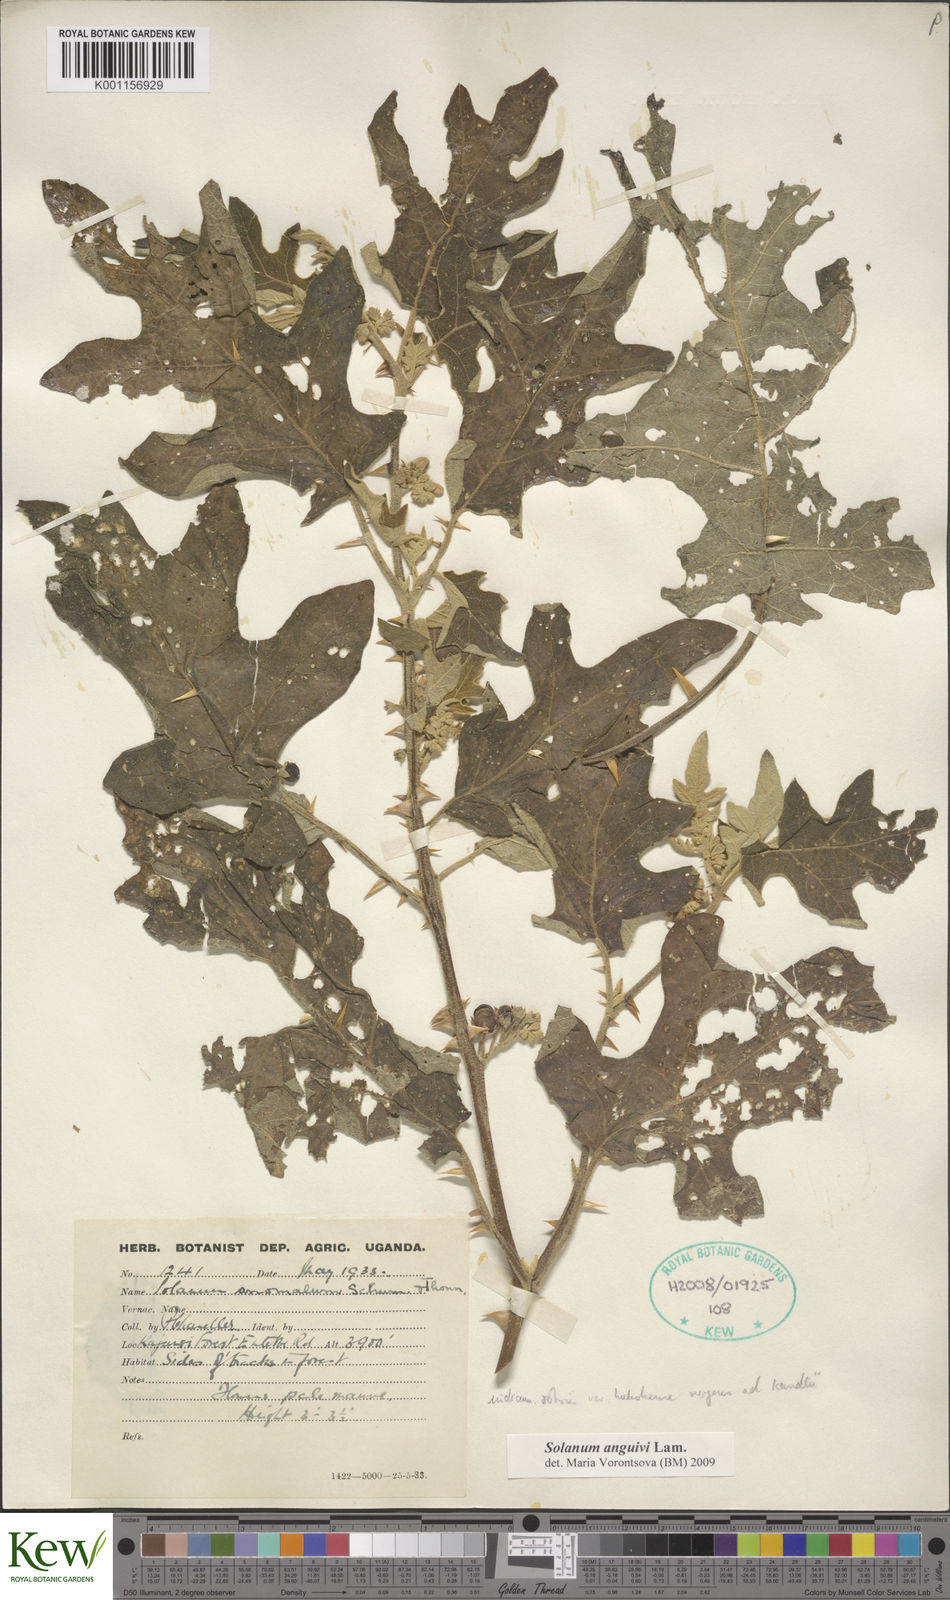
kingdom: Plantae
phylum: Tracheophyta
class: Magnoliopsida
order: Solanales
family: Solanaceae
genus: Solanum
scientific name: Solanum anguivi
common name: Forest bitterberry
